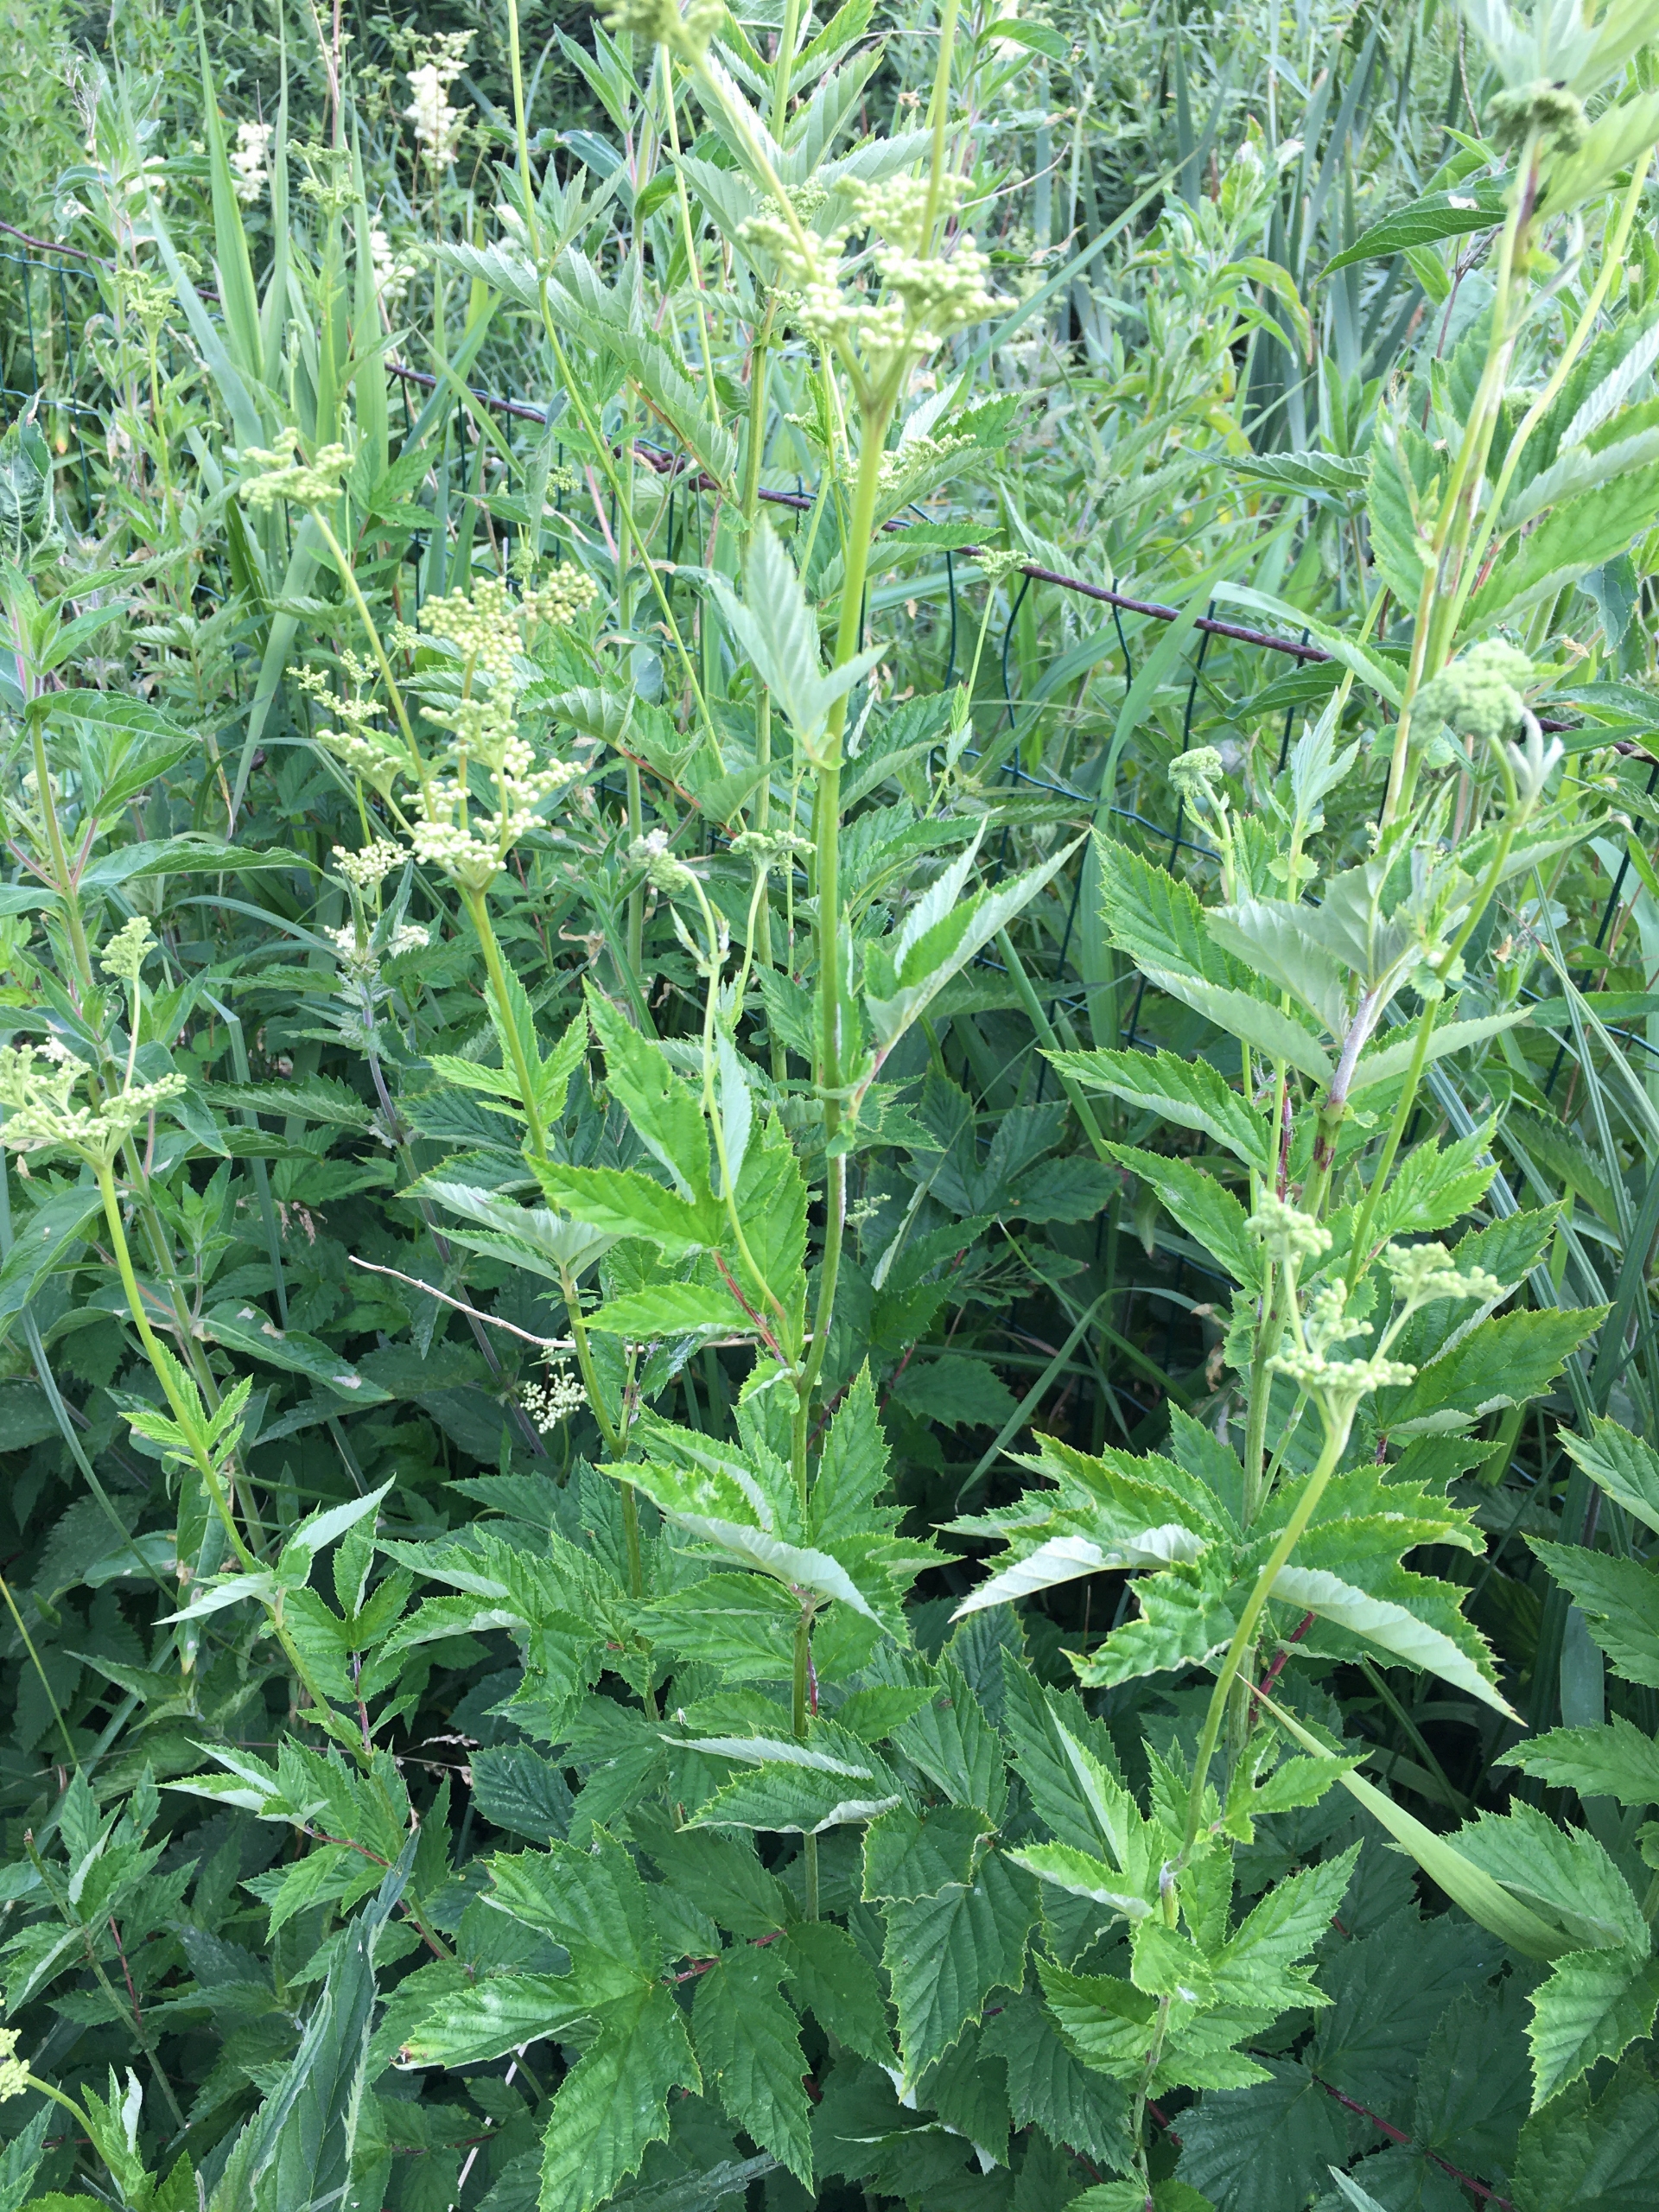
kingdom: Plantae
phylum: Tracheophyta
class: Magnoliopsida
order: Rosales
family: Rosaceae
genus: Filipendula
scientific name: Filipendula ulmaria
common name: Almindelig mjødurt
